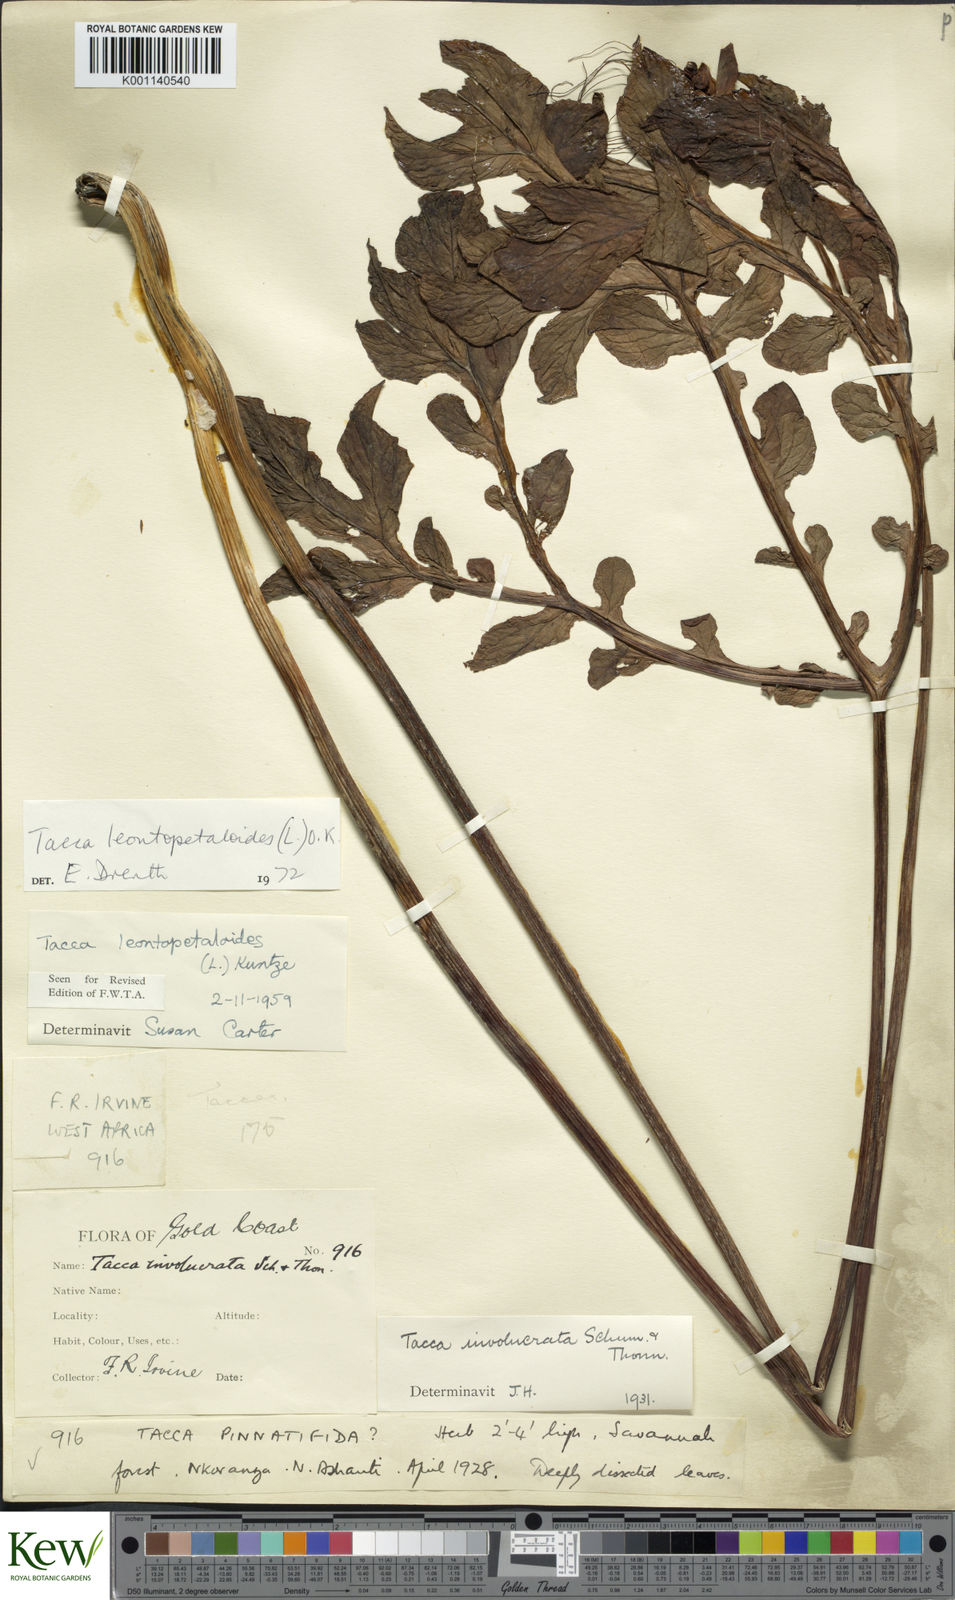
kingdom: Plantae
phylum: Tracheophyta
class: Liliopsida
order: Dioscoreales
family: Dioscoreaceae
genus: Tacca
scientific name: Tacca leontopetaloides
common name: Arrowroot
